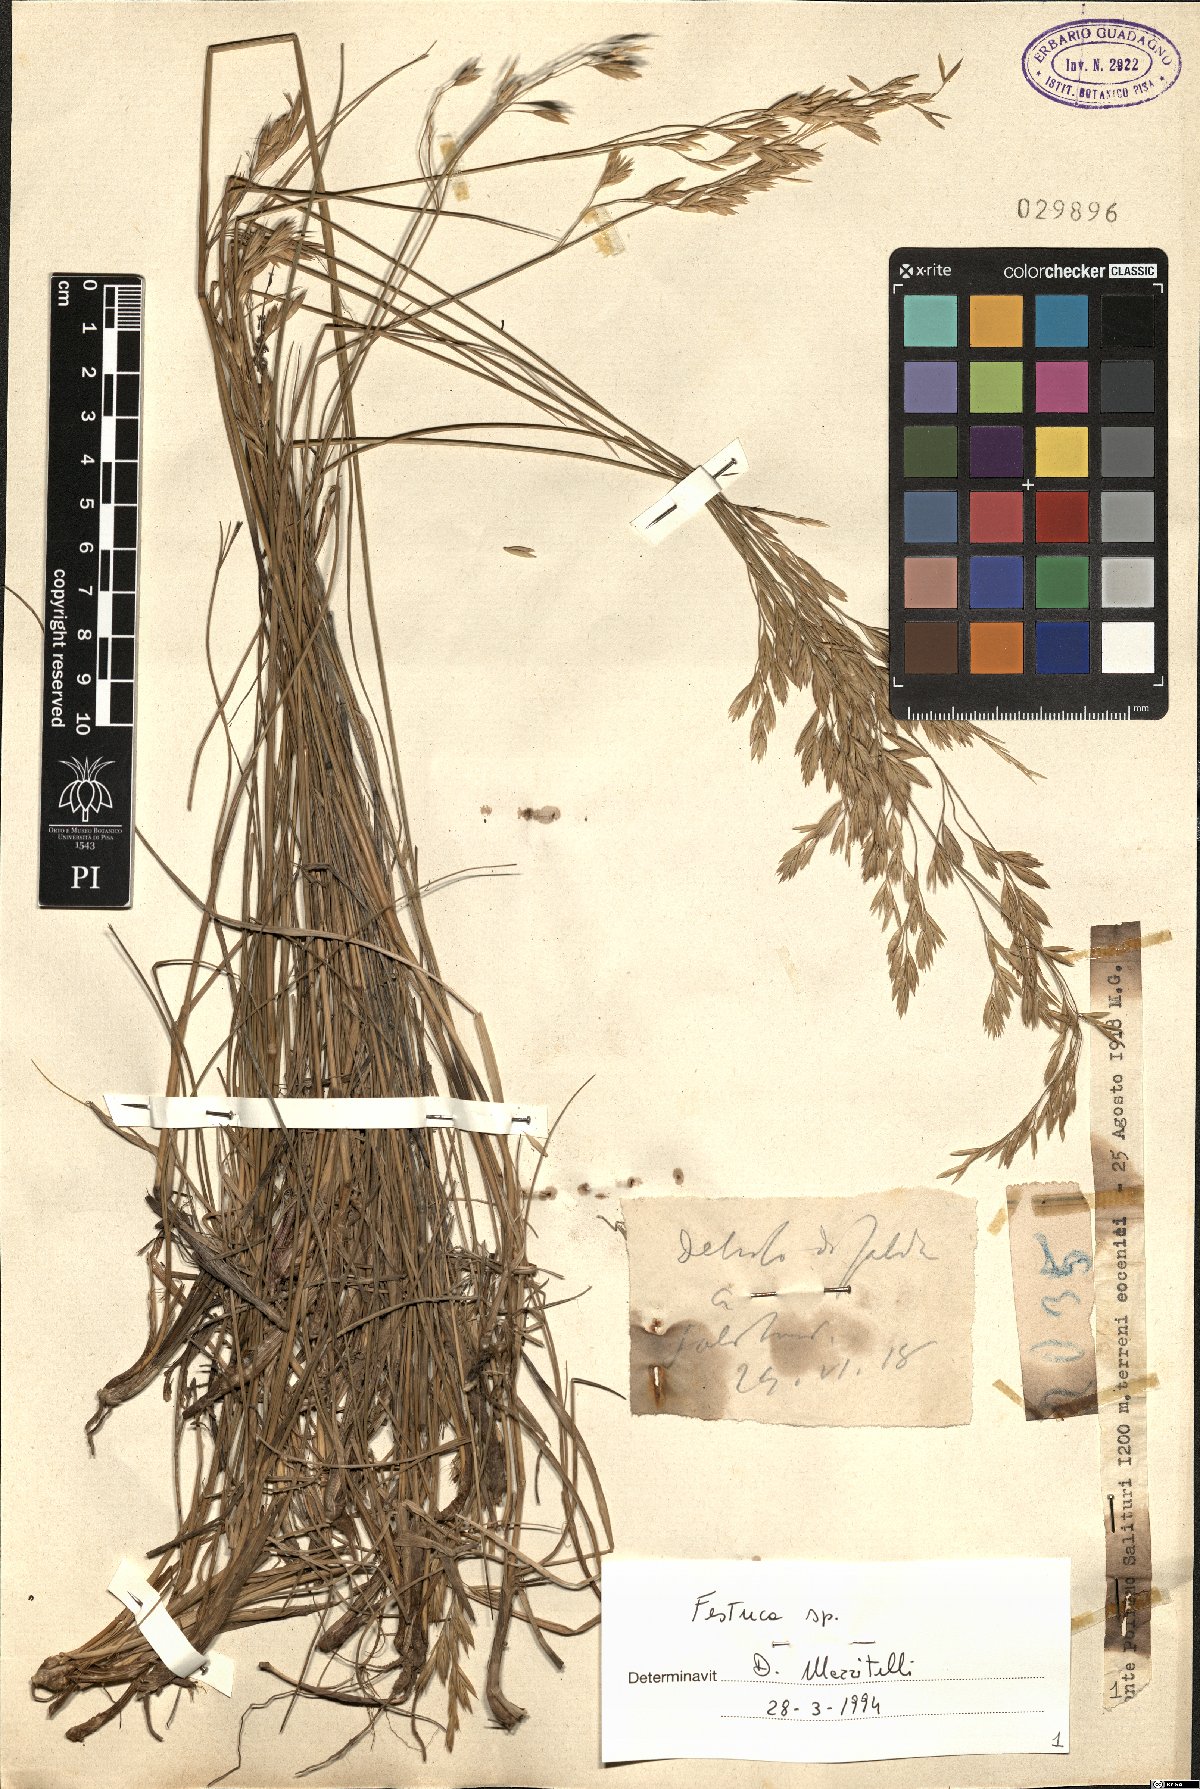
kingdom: Plantae
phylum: Tracheophyta
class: Liliopsida
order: Poales
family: Poaceae
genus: Festuca
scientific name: Festuca
